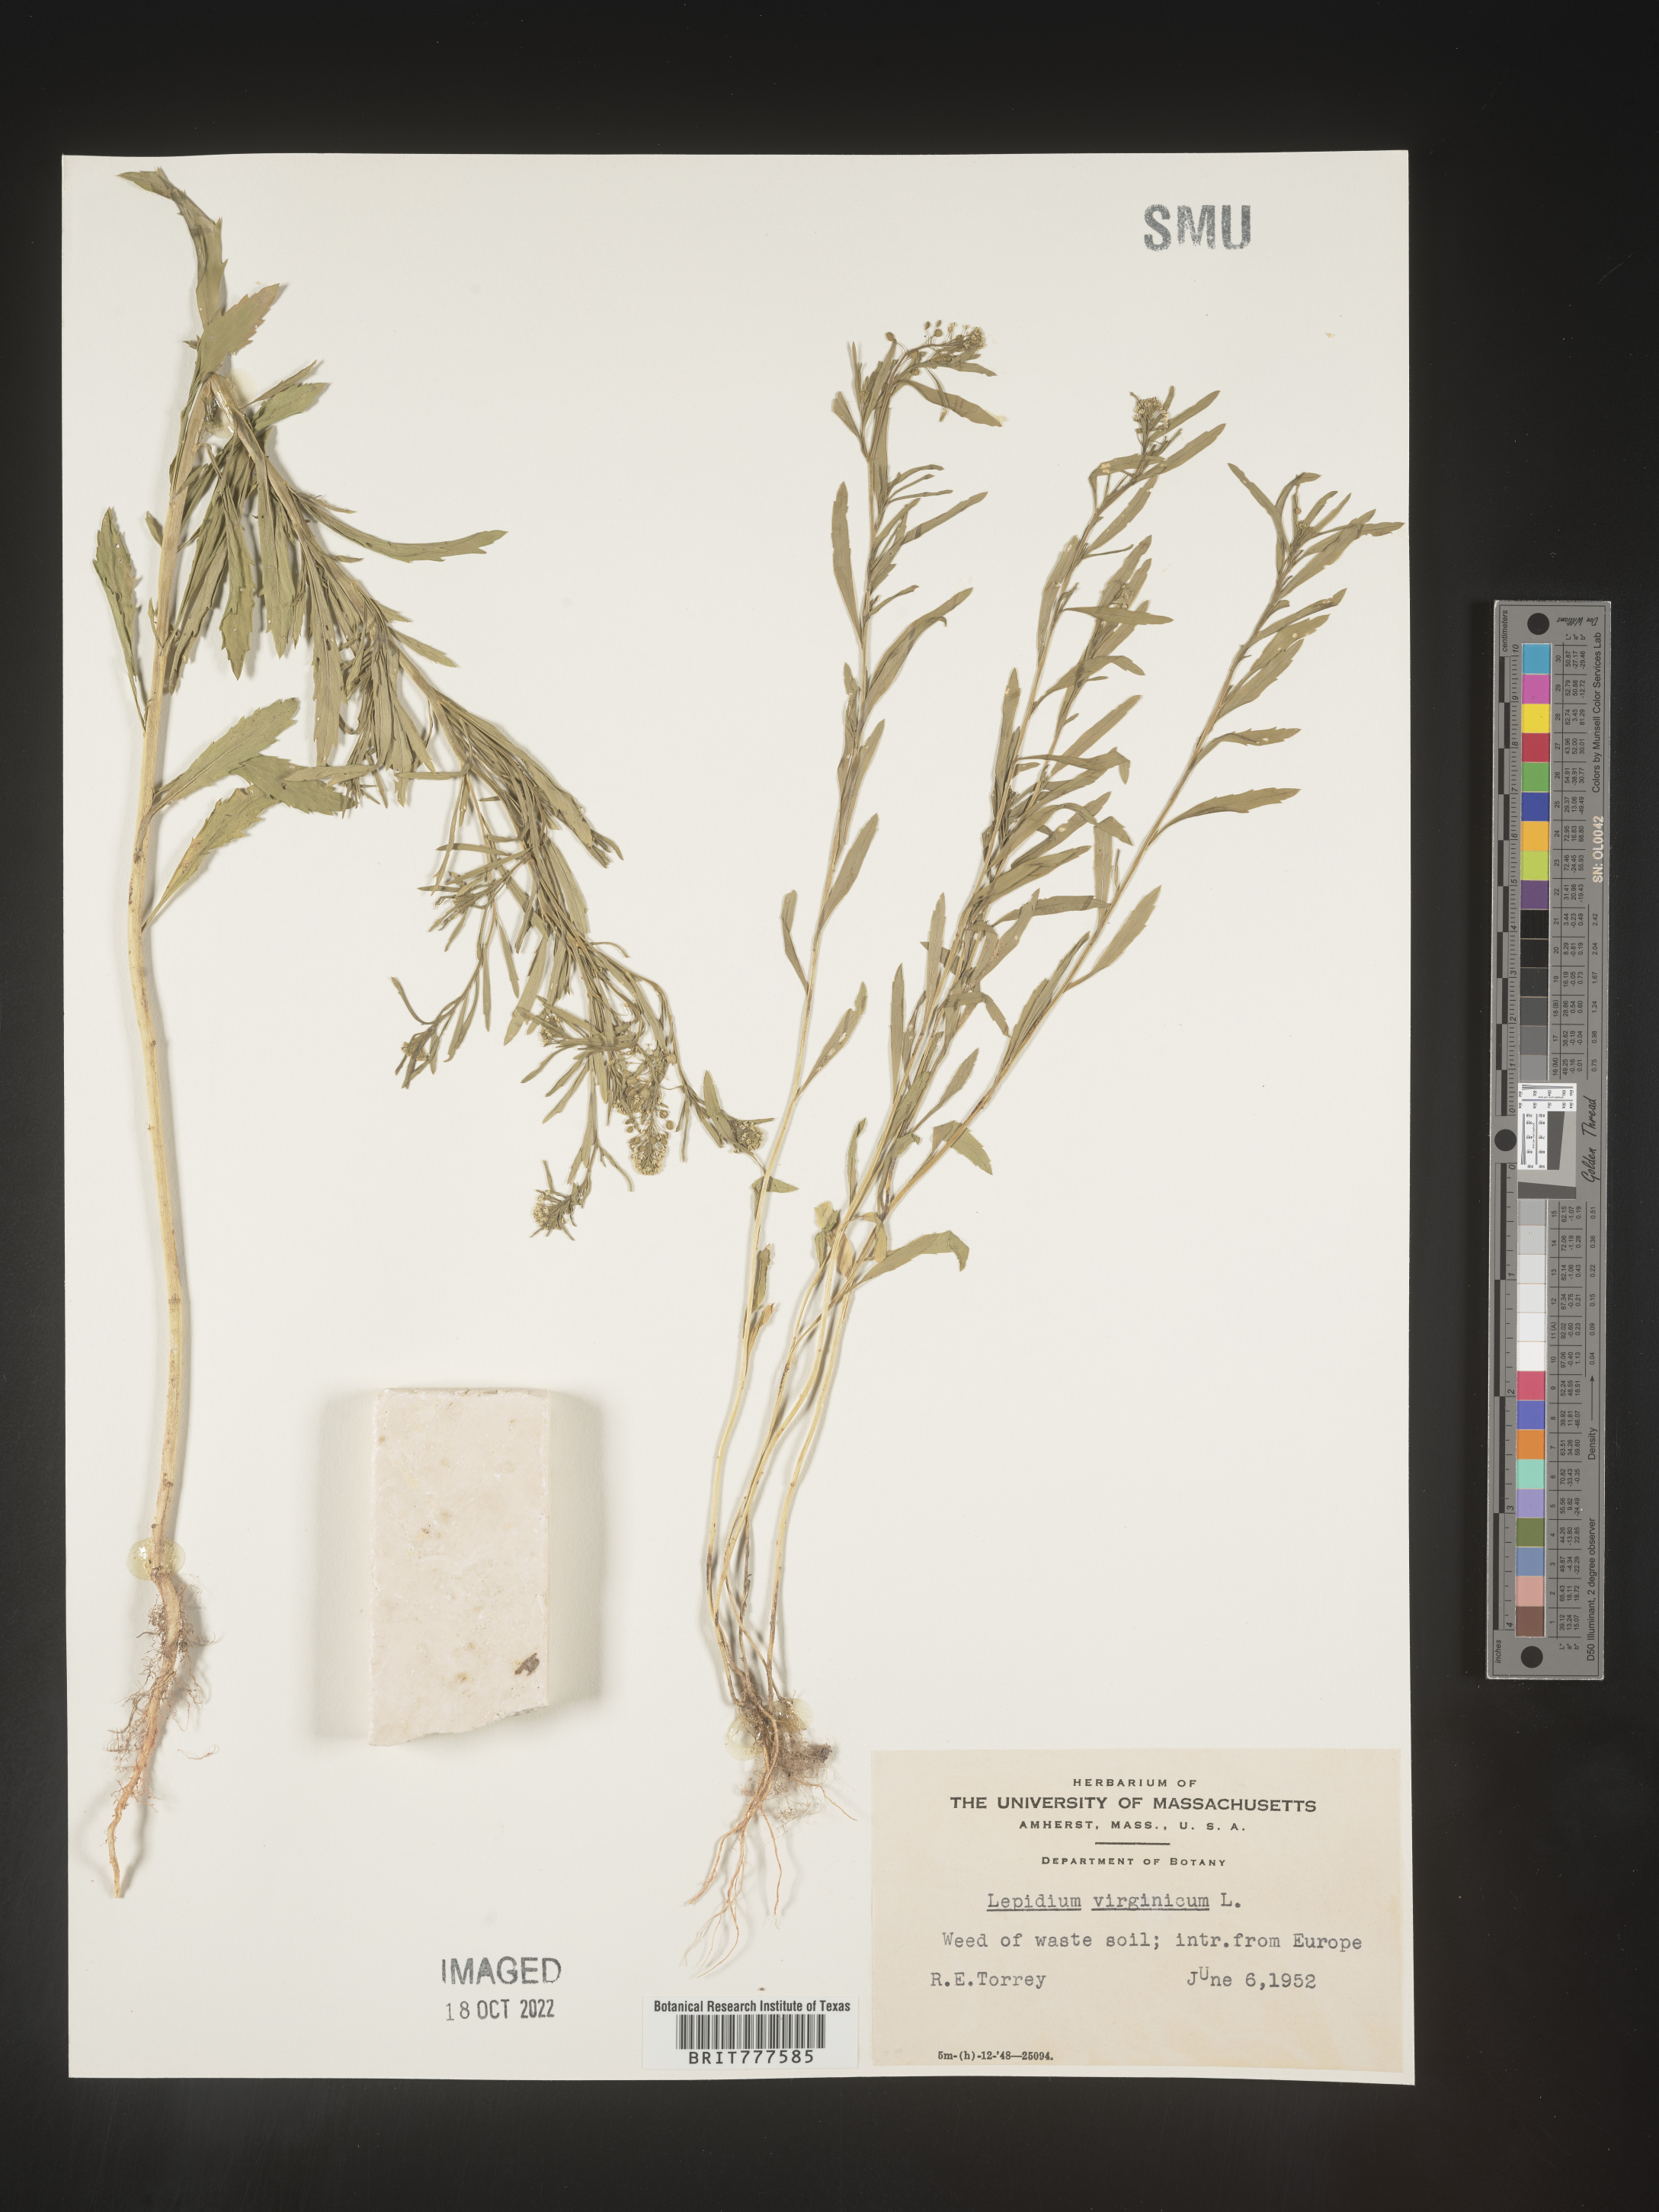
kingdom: Plantae
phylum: Tracheophyta
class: Magnoliopsida
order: Brassicales
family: Brassicaceae
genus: Lepidium
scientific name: Lepidium virginicum
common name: Least pepperwort
